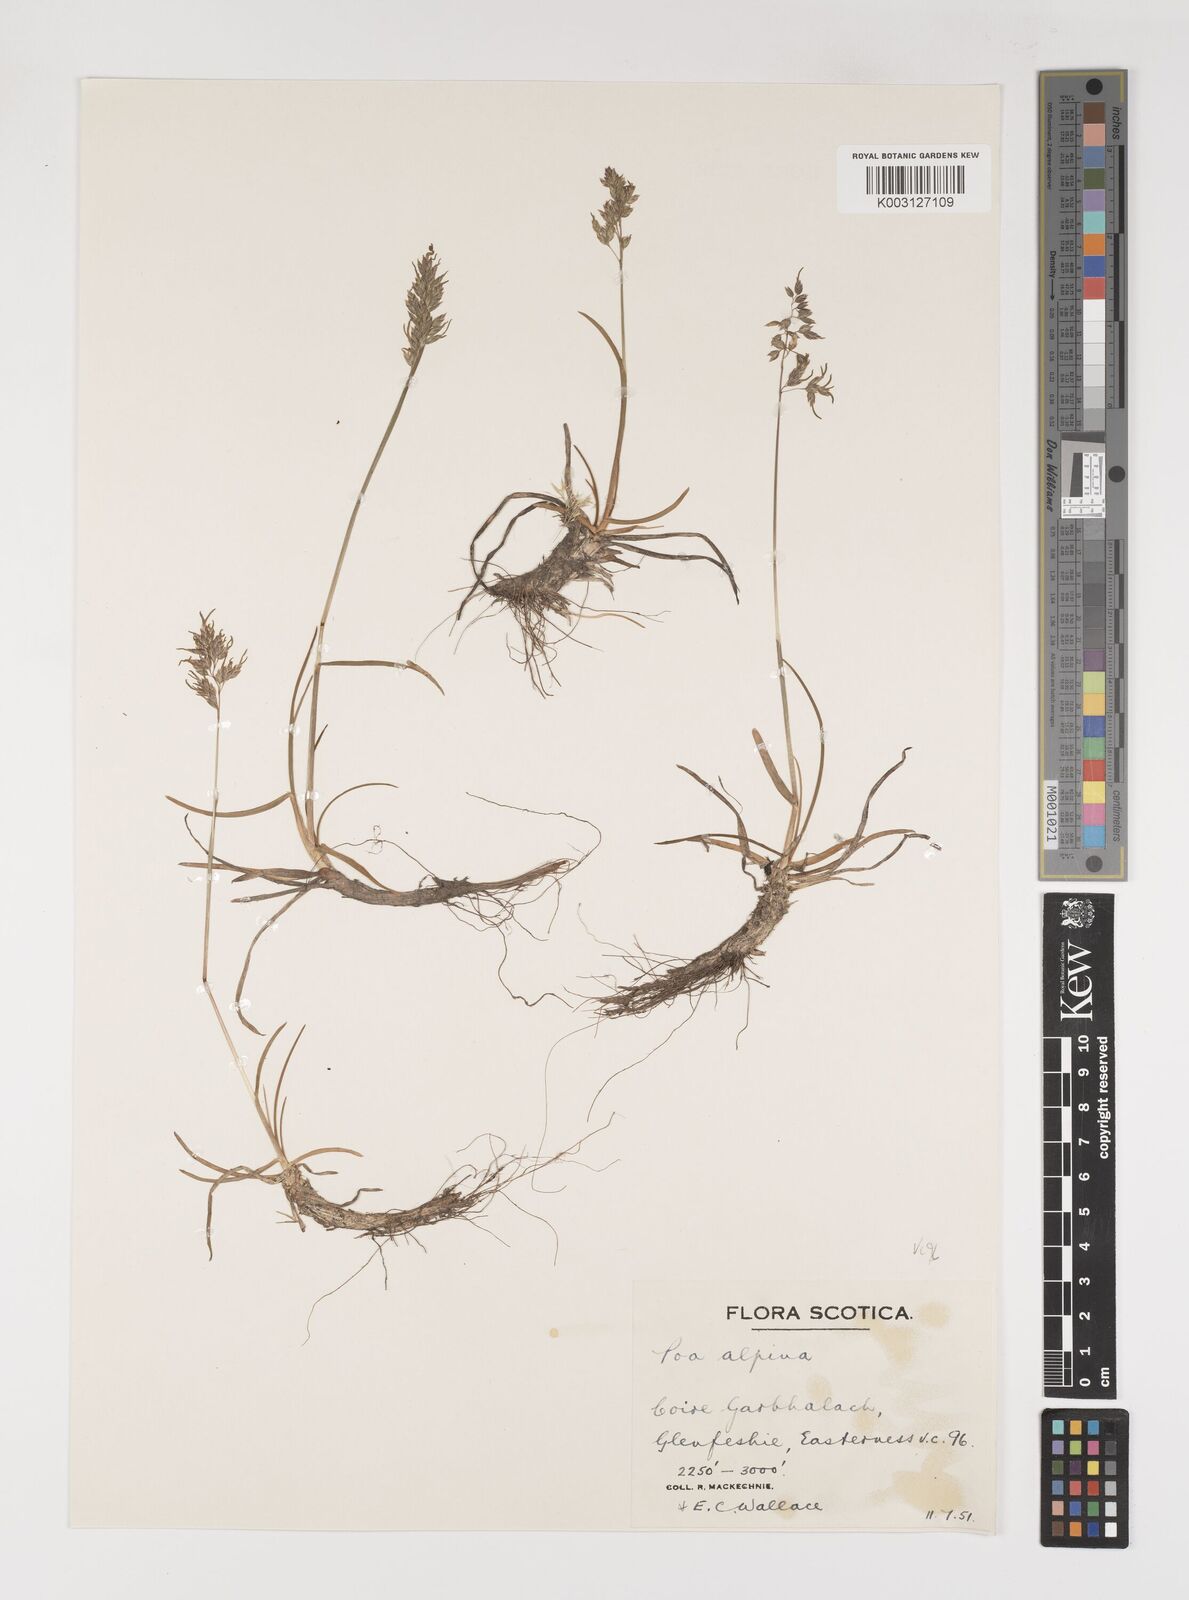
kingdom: Plantae
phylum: Tracheophyta
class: Liliopsida
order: Poales
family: Poaceae
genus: Poa
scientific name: Poa alpina
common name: Alpine bluegrass
